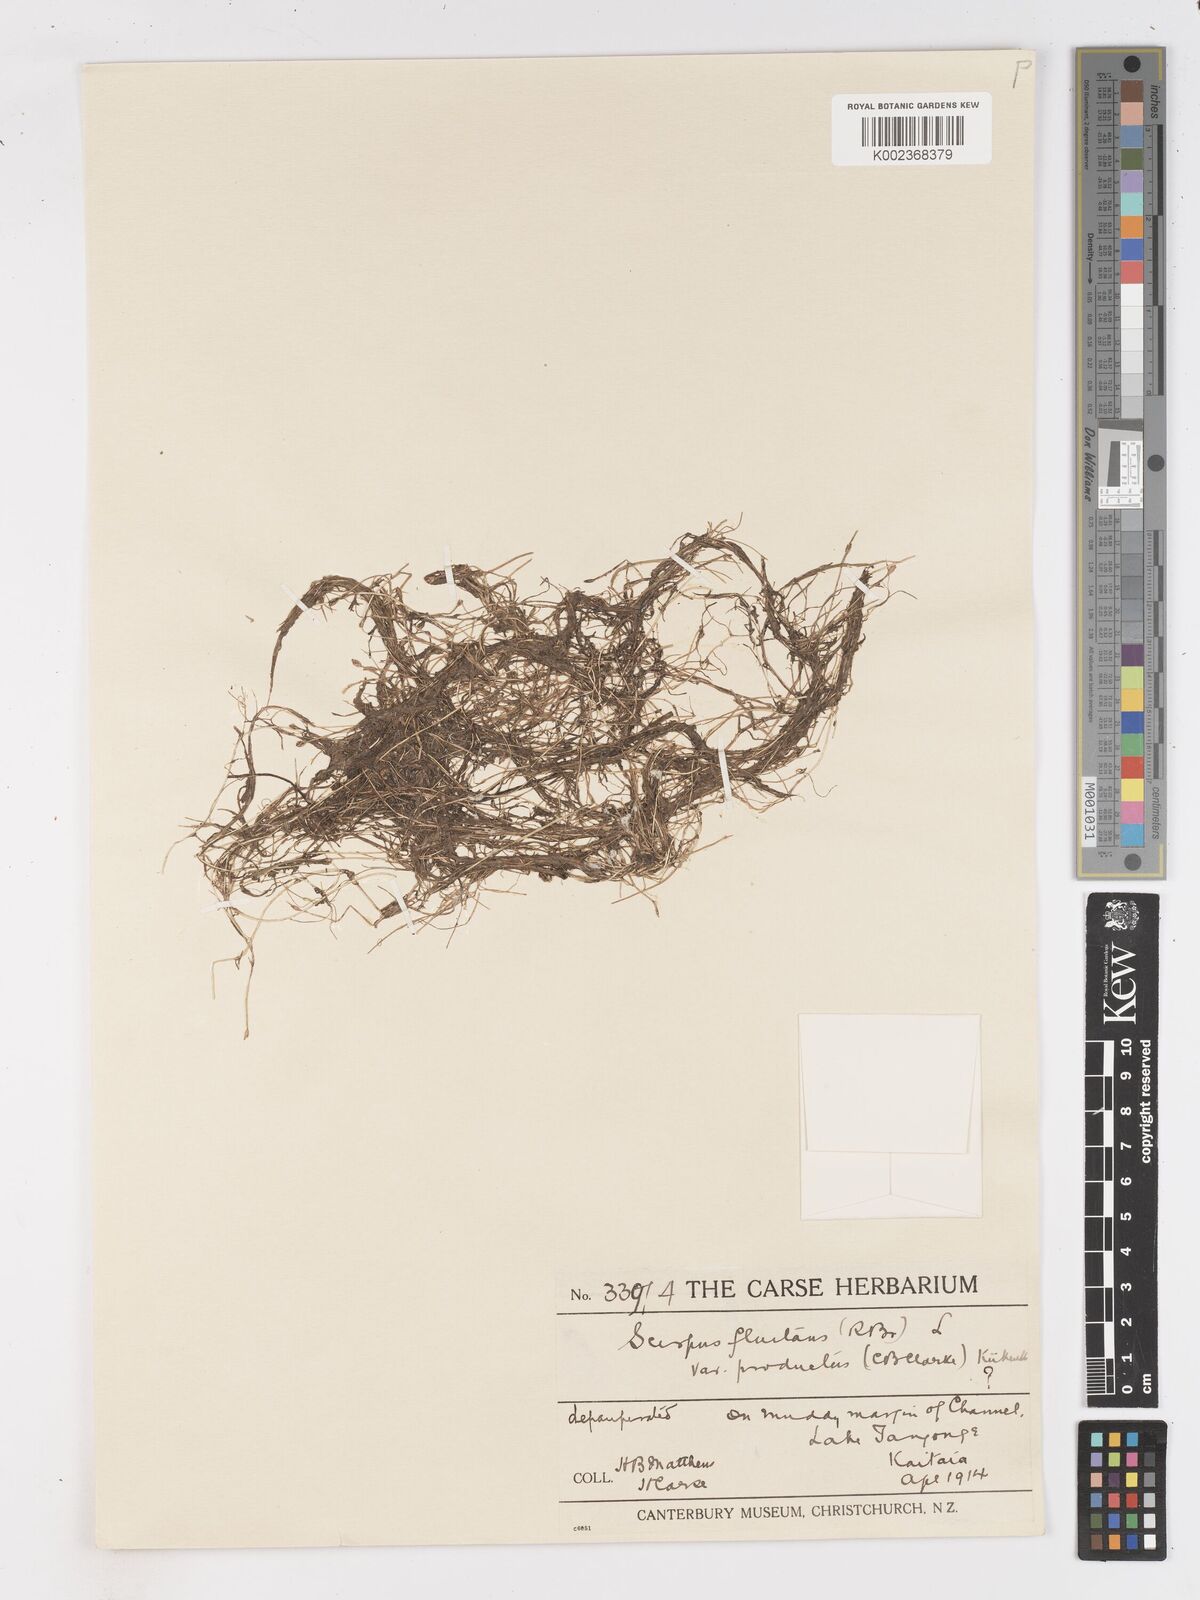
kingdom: Plantae
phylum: Tracheophyta
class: Liliopsida
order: Poales
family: Cyperaceae
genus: Isolepis
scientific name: Isolepis
